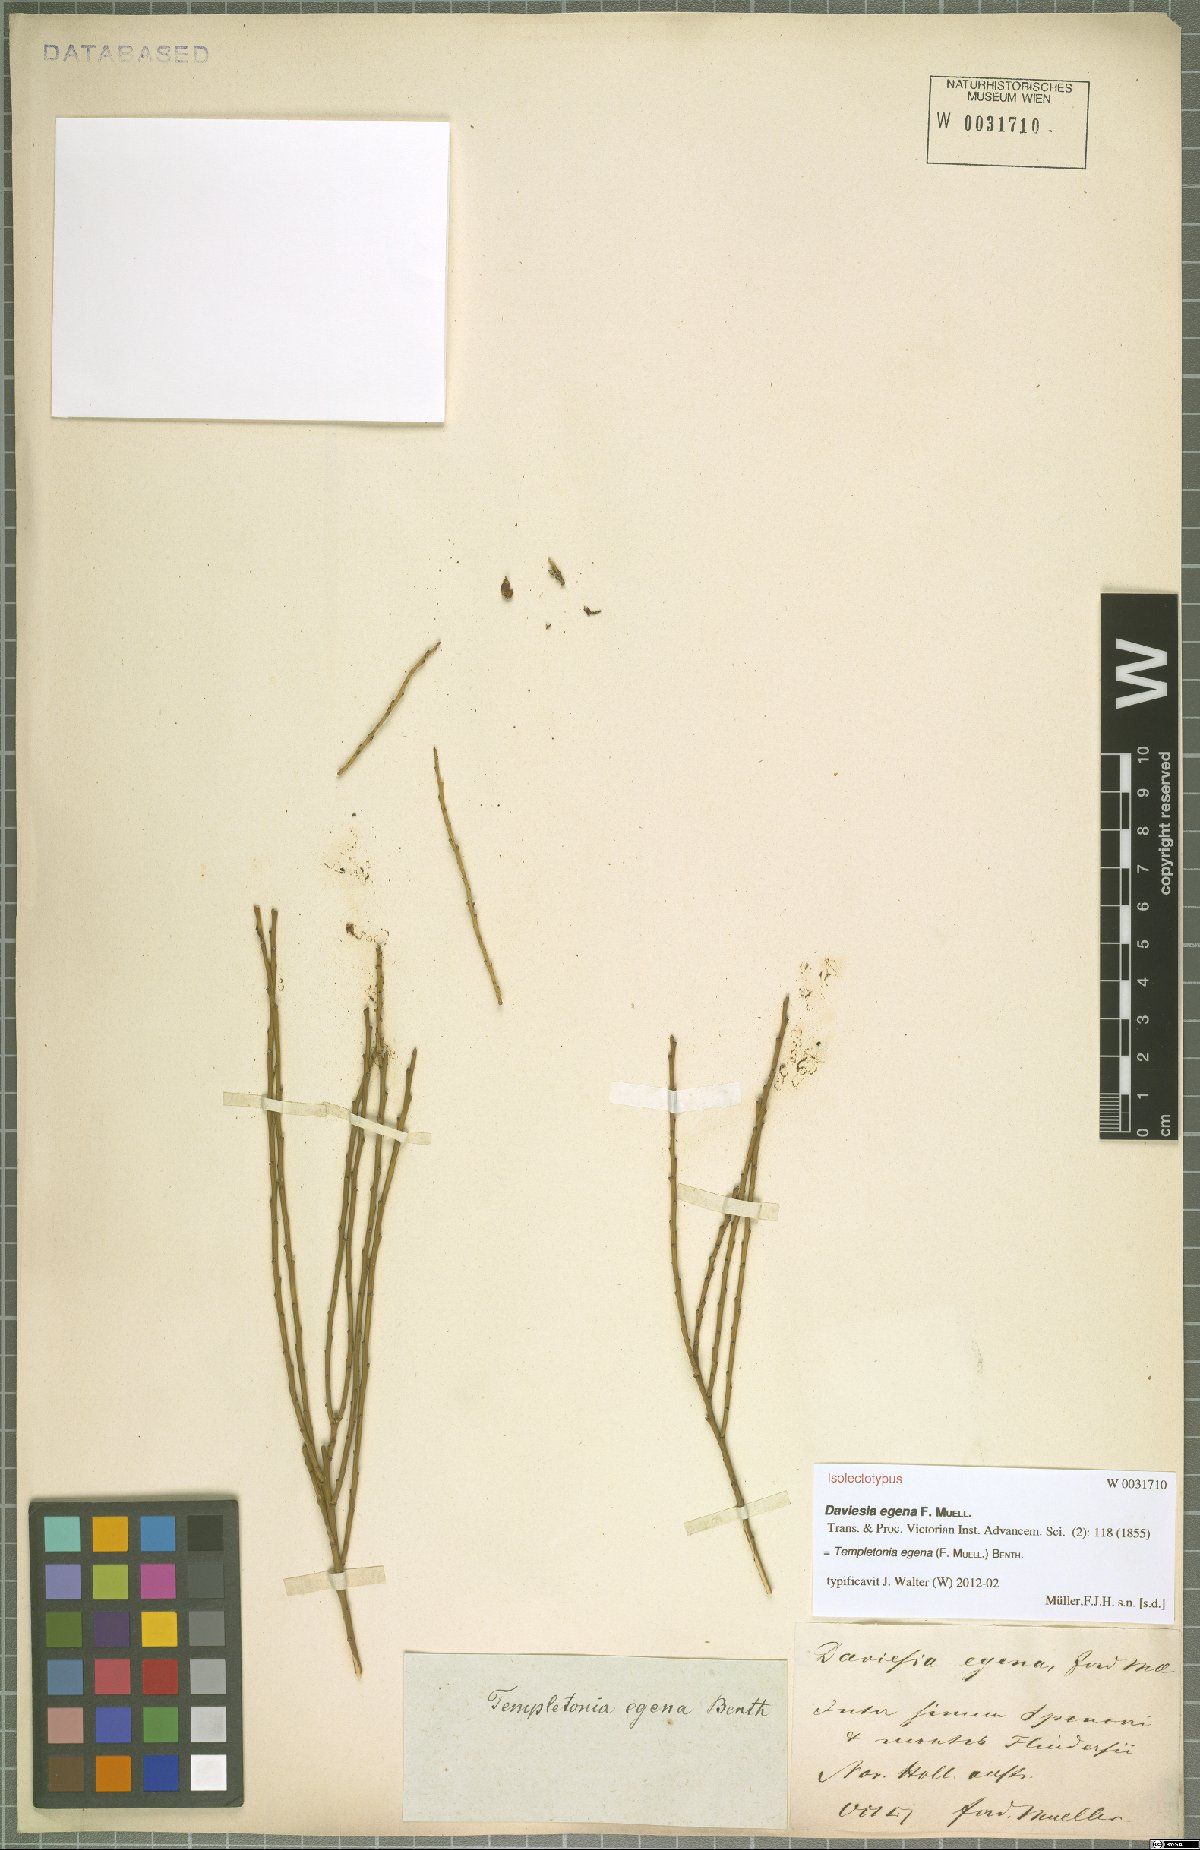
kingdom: Plantae
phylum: Tracheophyta
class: Magnoliopsida
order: Fabales
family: Fabaceae
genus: Templetonia
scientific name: Templetonia egena
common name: Desert broombush
